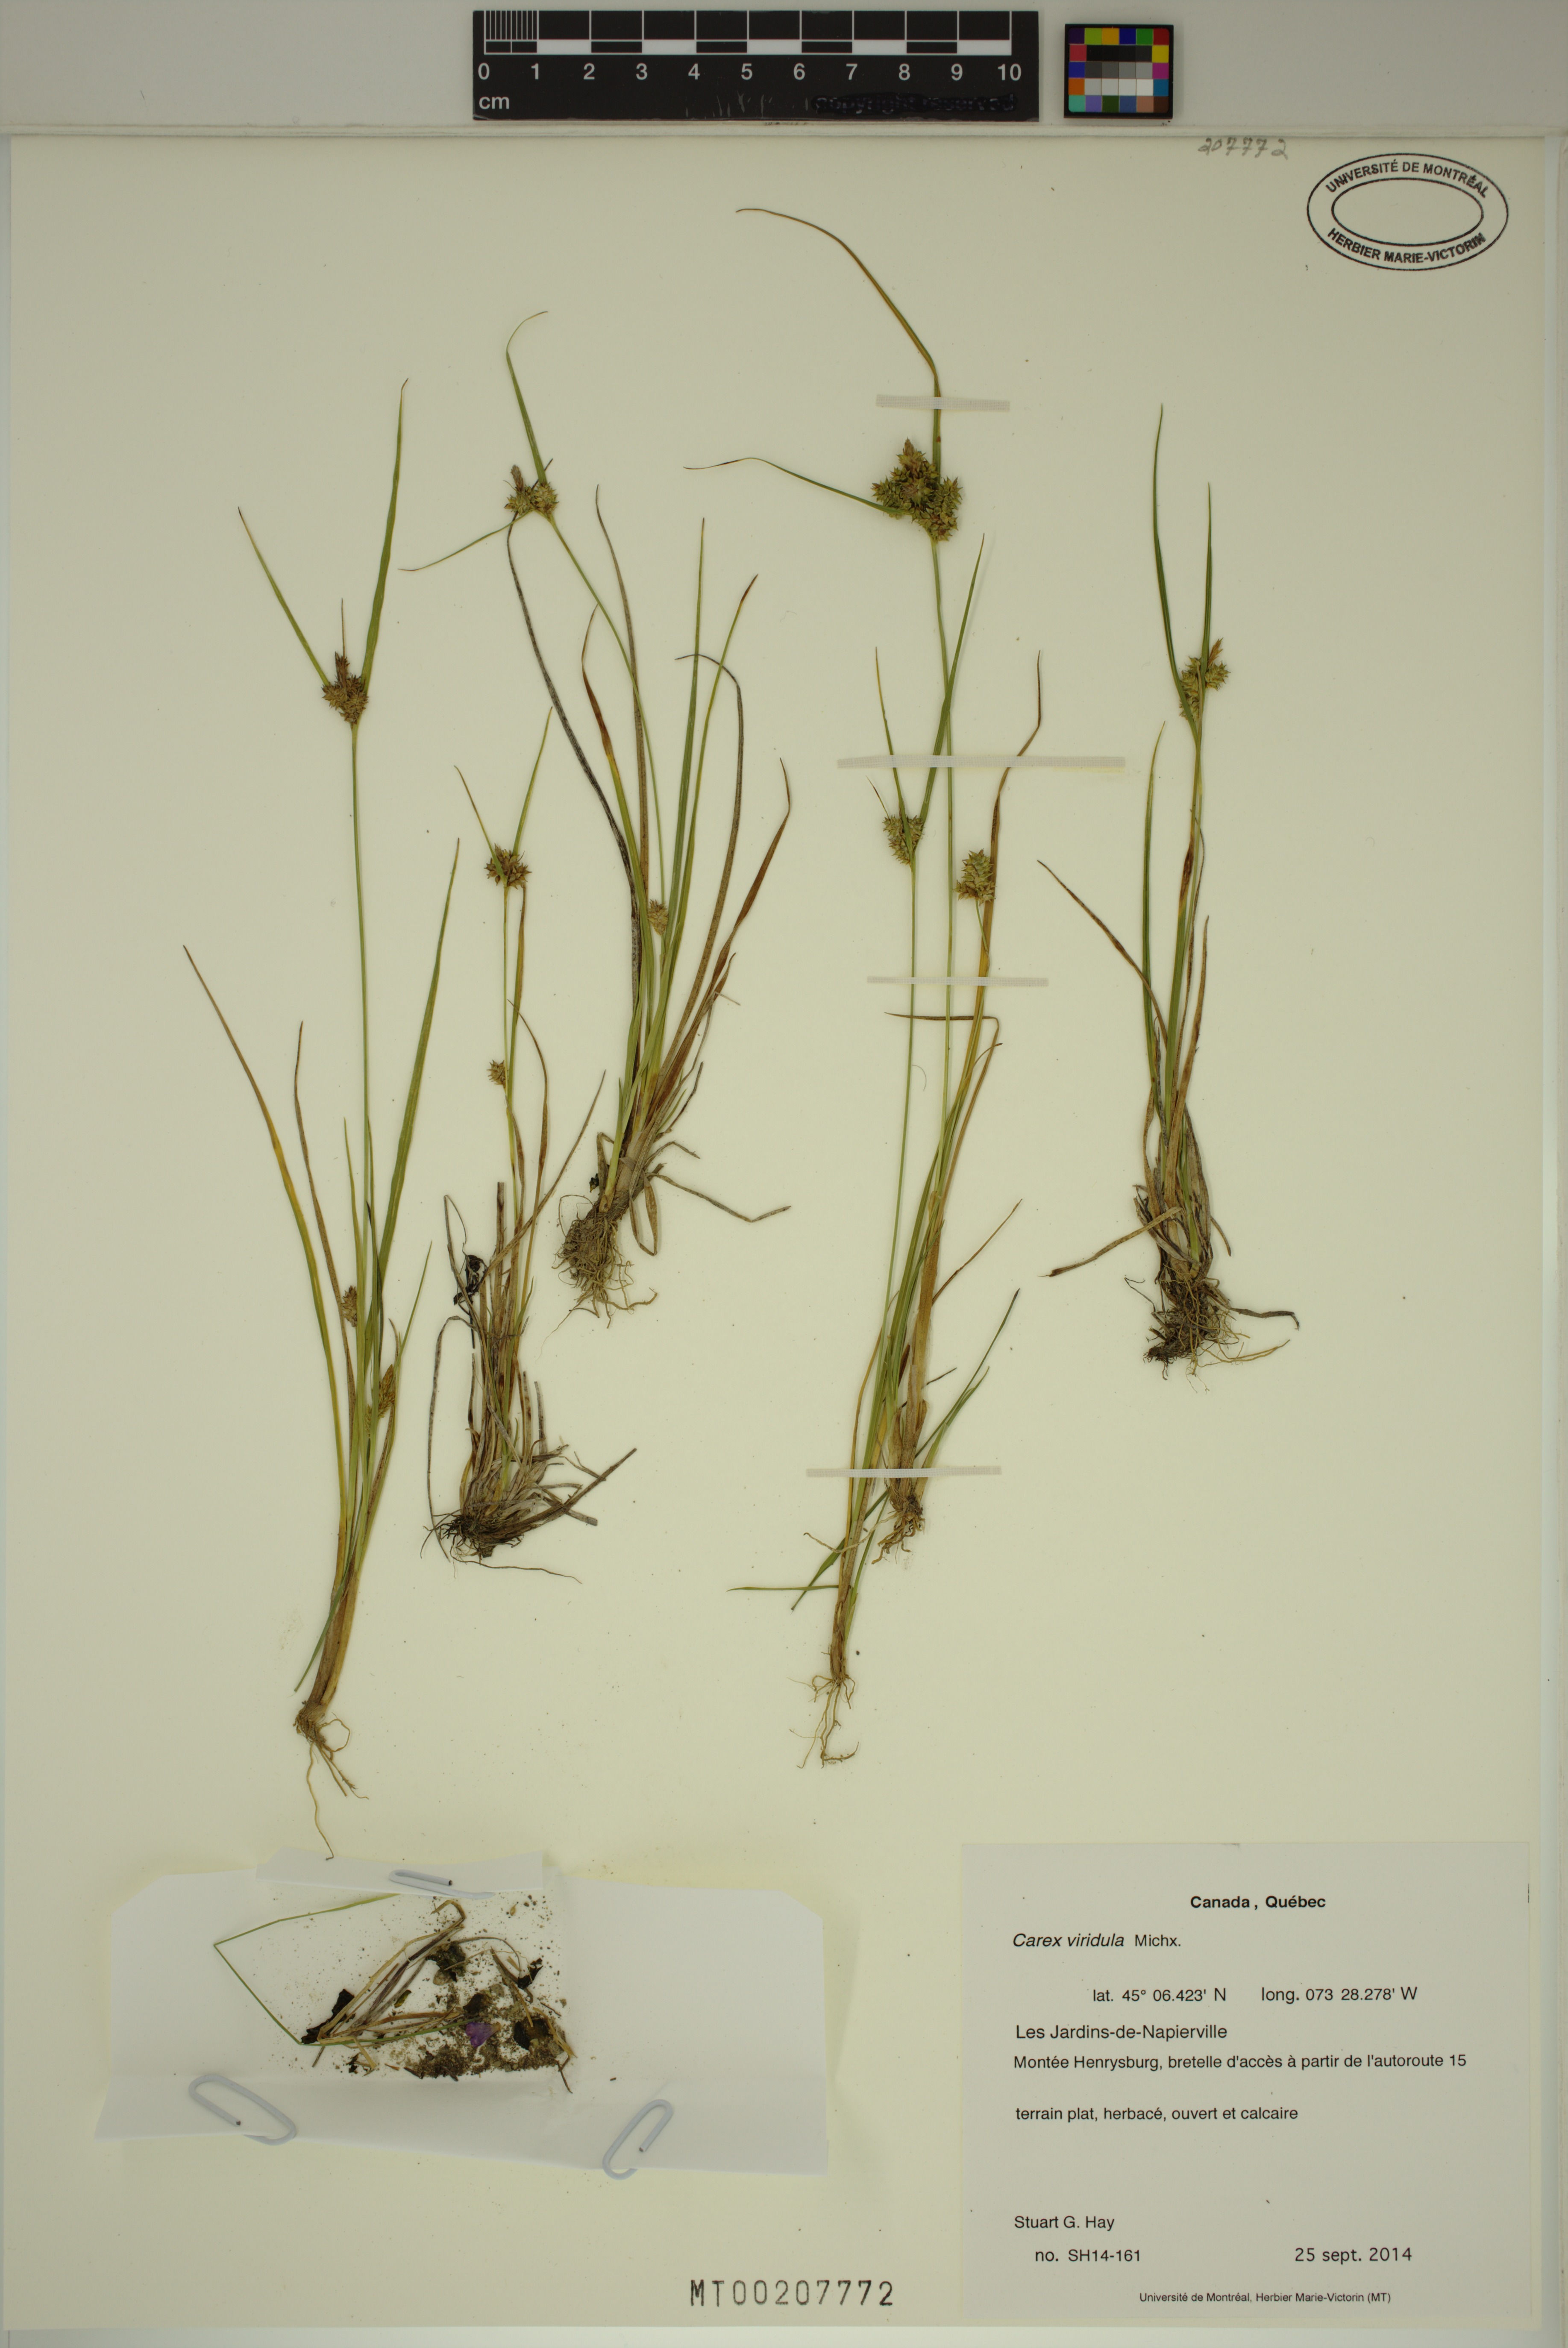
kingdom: Plantae
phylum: Tracheophyta
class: Liliopsida
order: Poales
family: Cyperaceae
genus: Carex
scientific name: Carex oederi
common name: Common & small-fruited yellow-sedge
